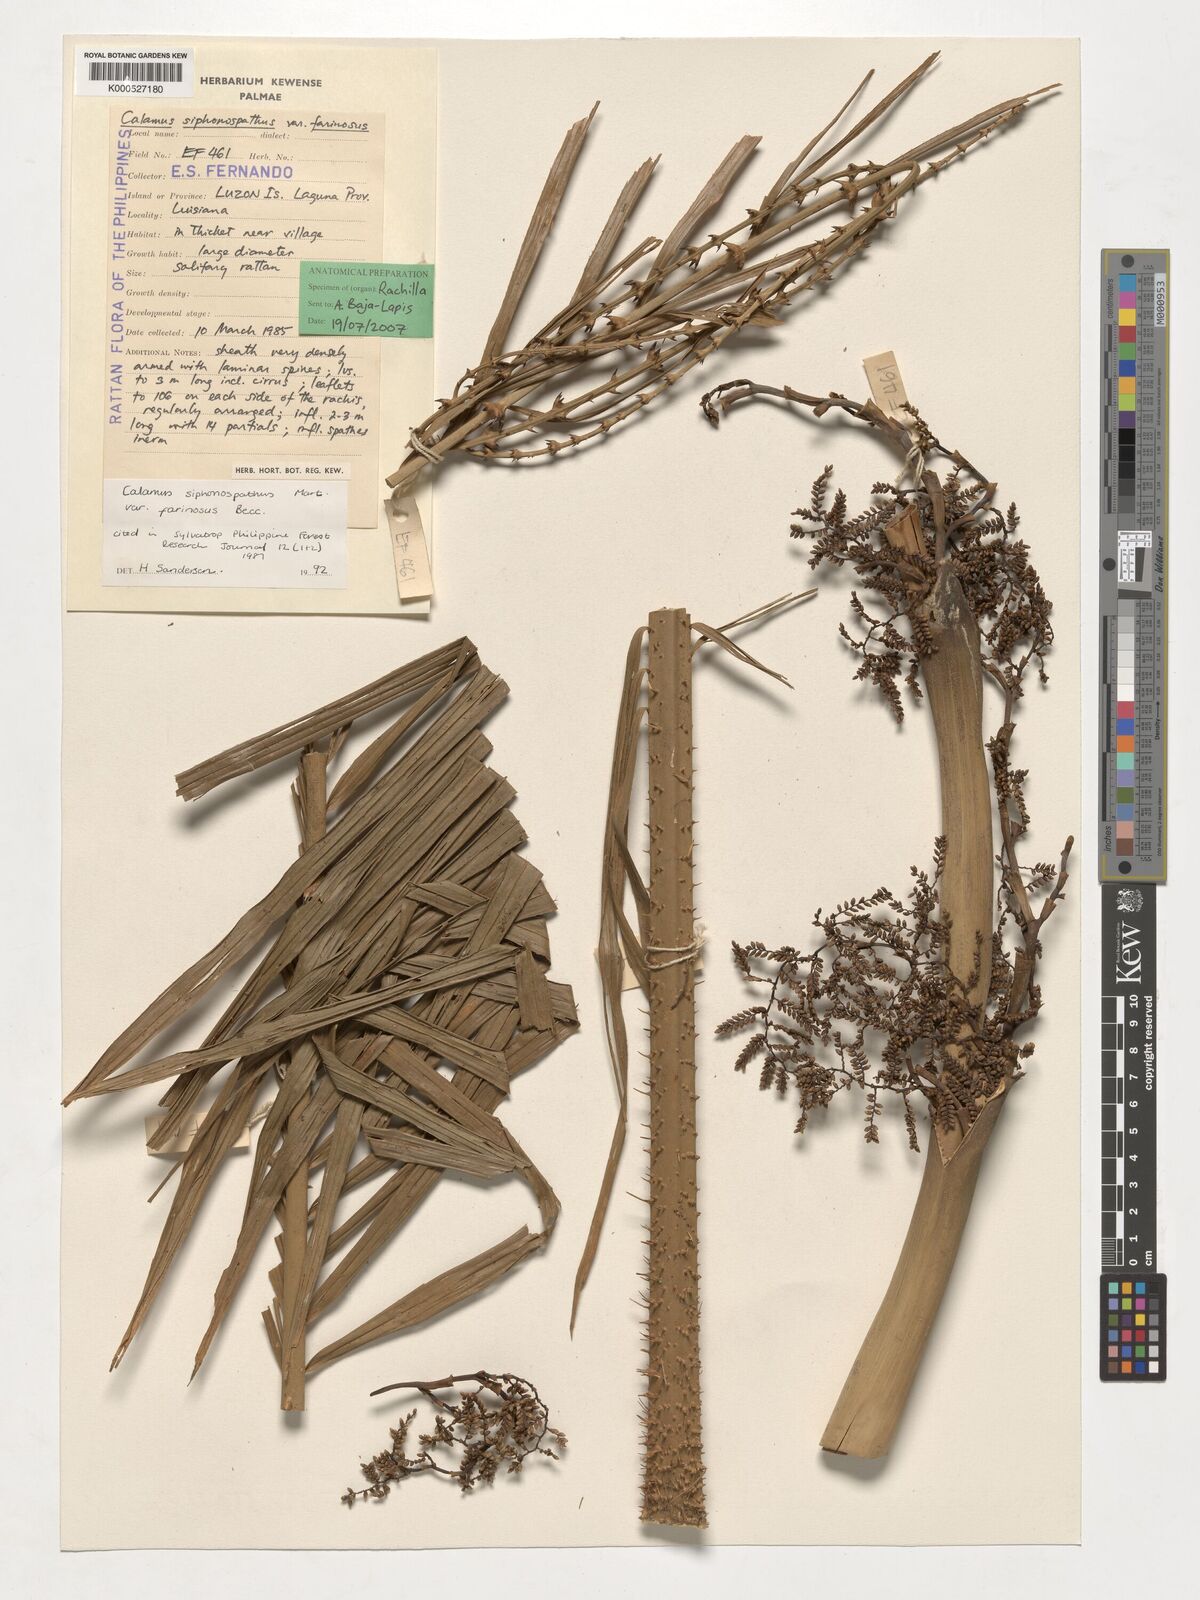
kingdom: Plantae
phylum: Tracheophyta
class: Liliopsida
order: Arecales
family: Arecaceae
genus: Calamus
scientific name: Calamus siphonospathus
